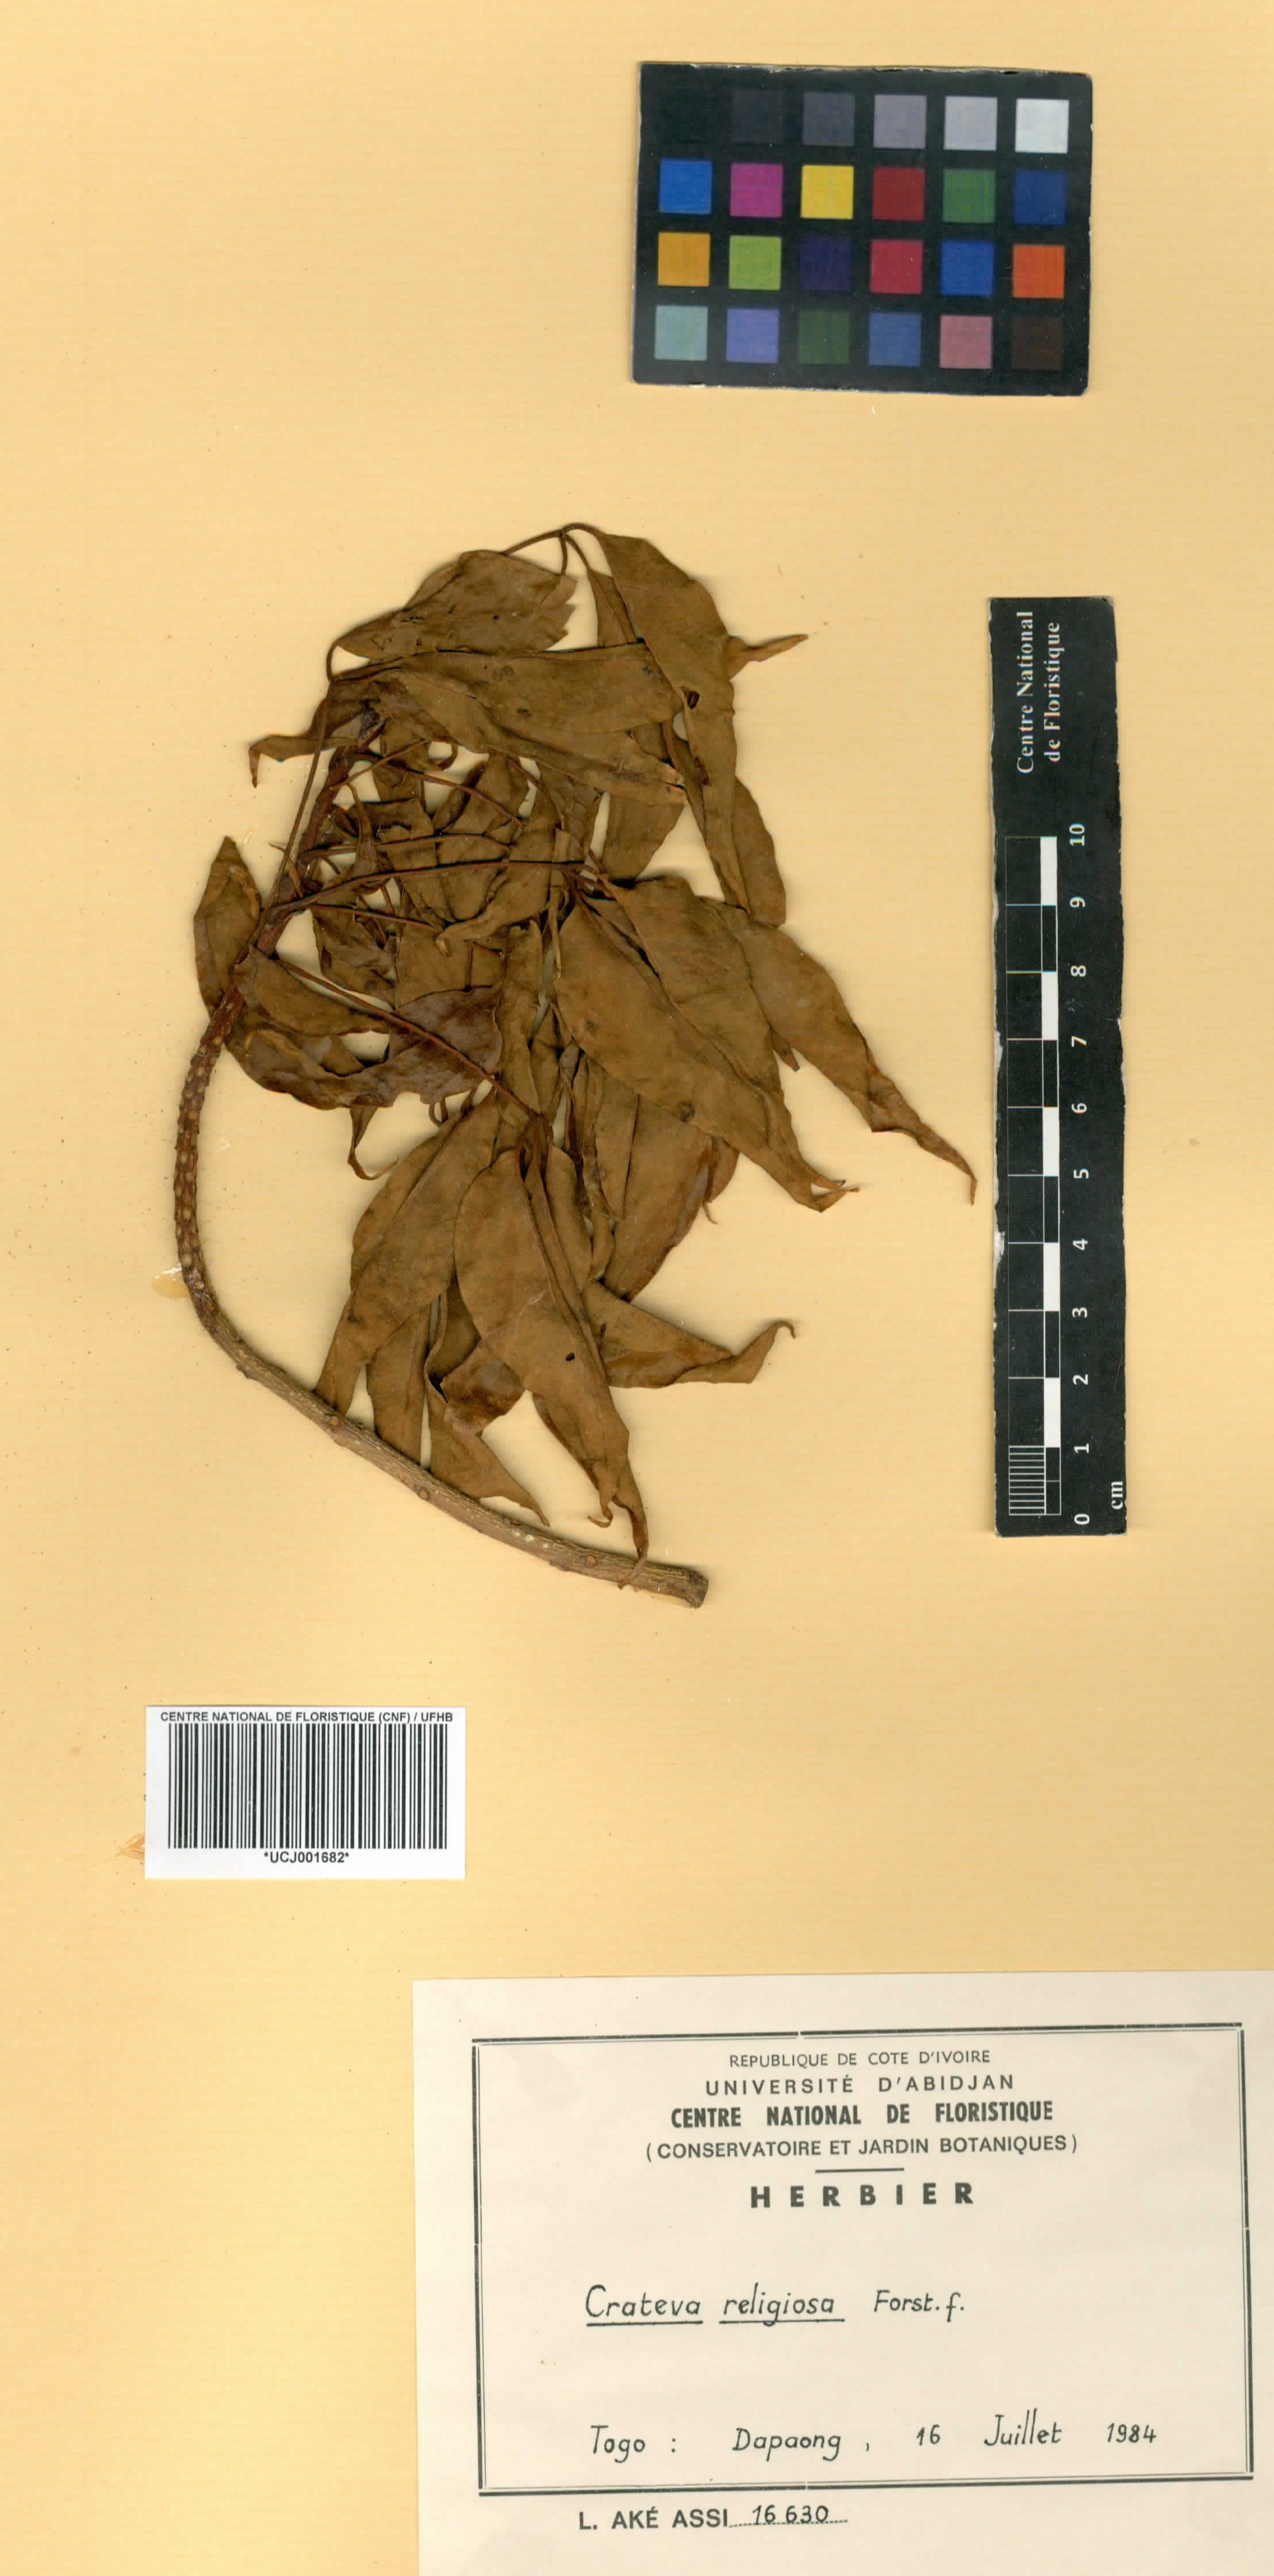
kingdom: Plantae
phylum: Tracheophyta
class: Magnoliopsida
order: Brassicales
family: Capparaceae
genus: Crateva
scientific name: Crateva religiosa
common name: March dalur
